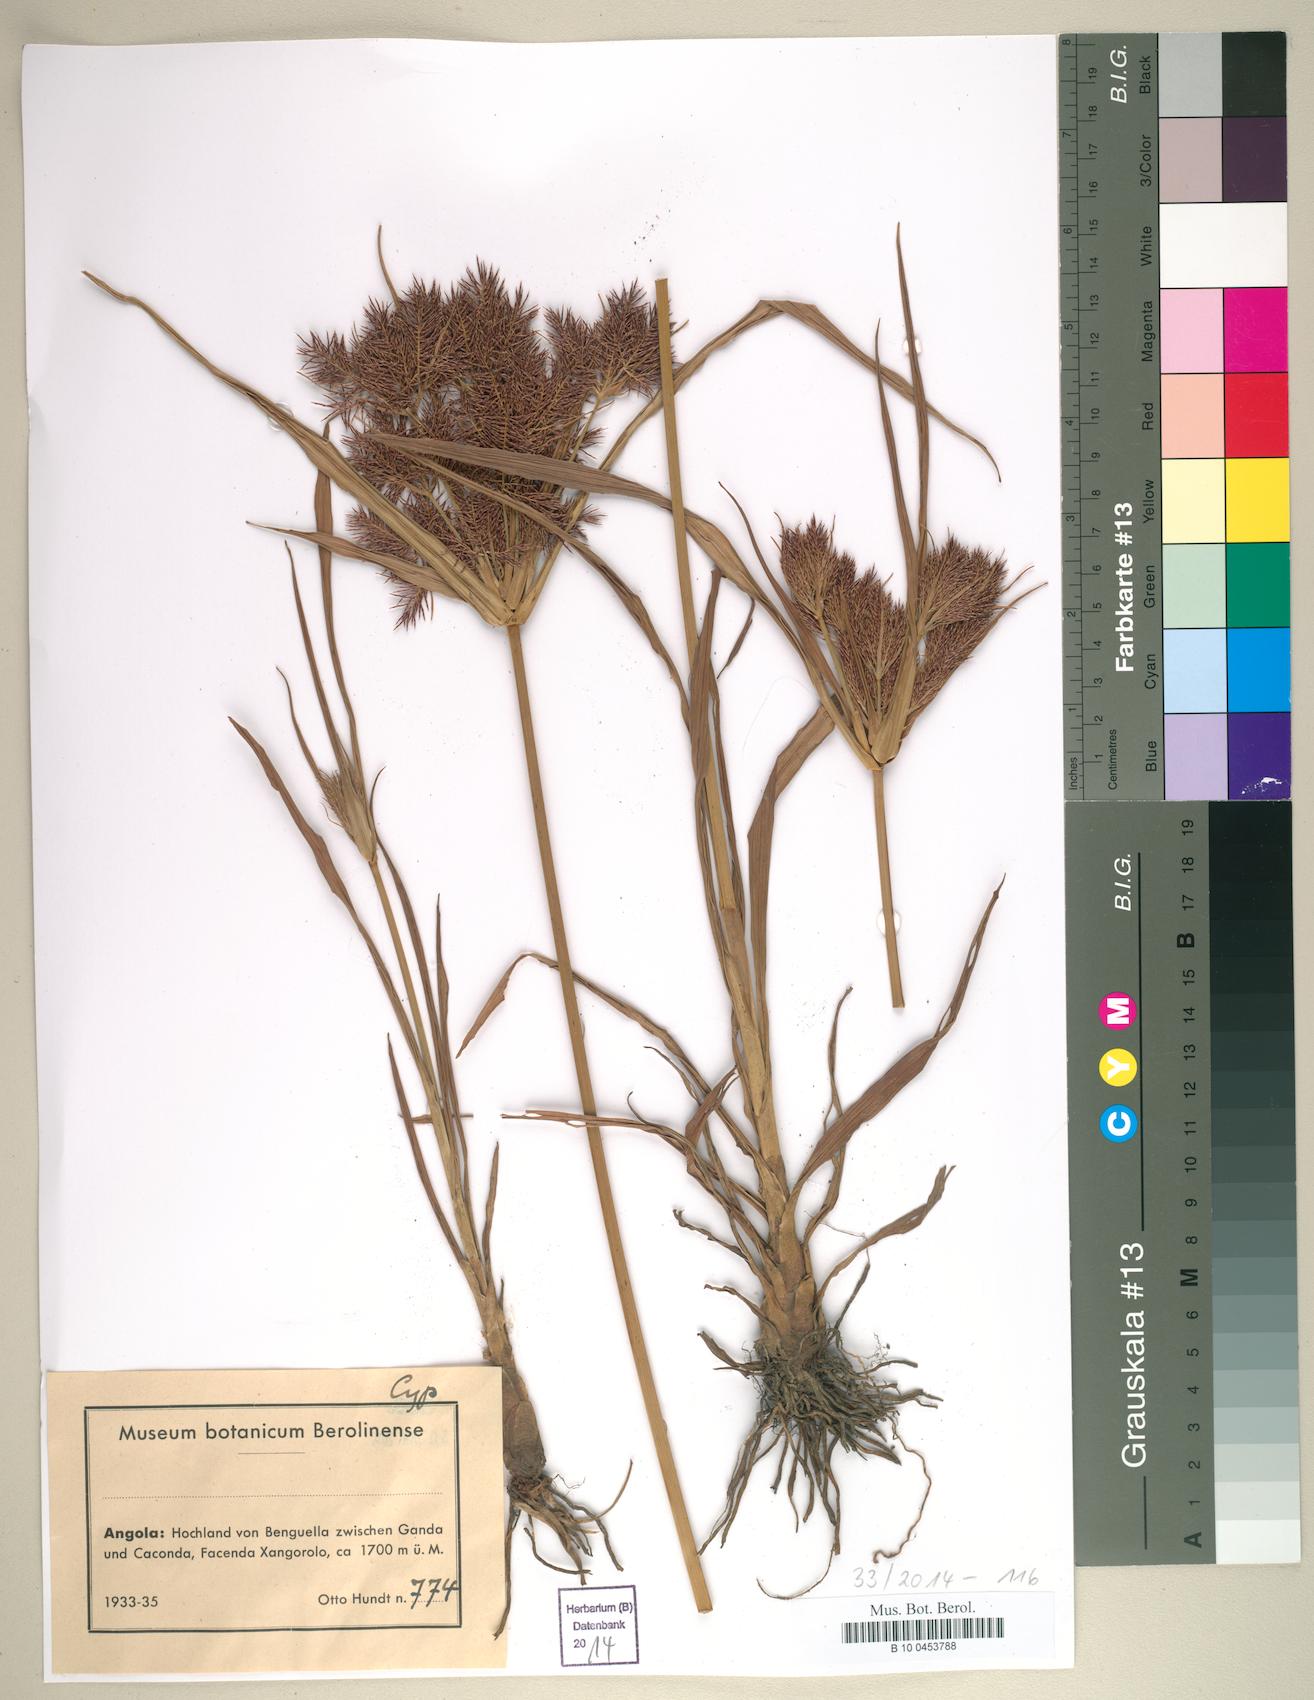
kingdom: Plantae
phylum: Tracheophyta
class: Liliopsida
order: Poales
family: Cyperaceae
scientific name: Cyperaceae
